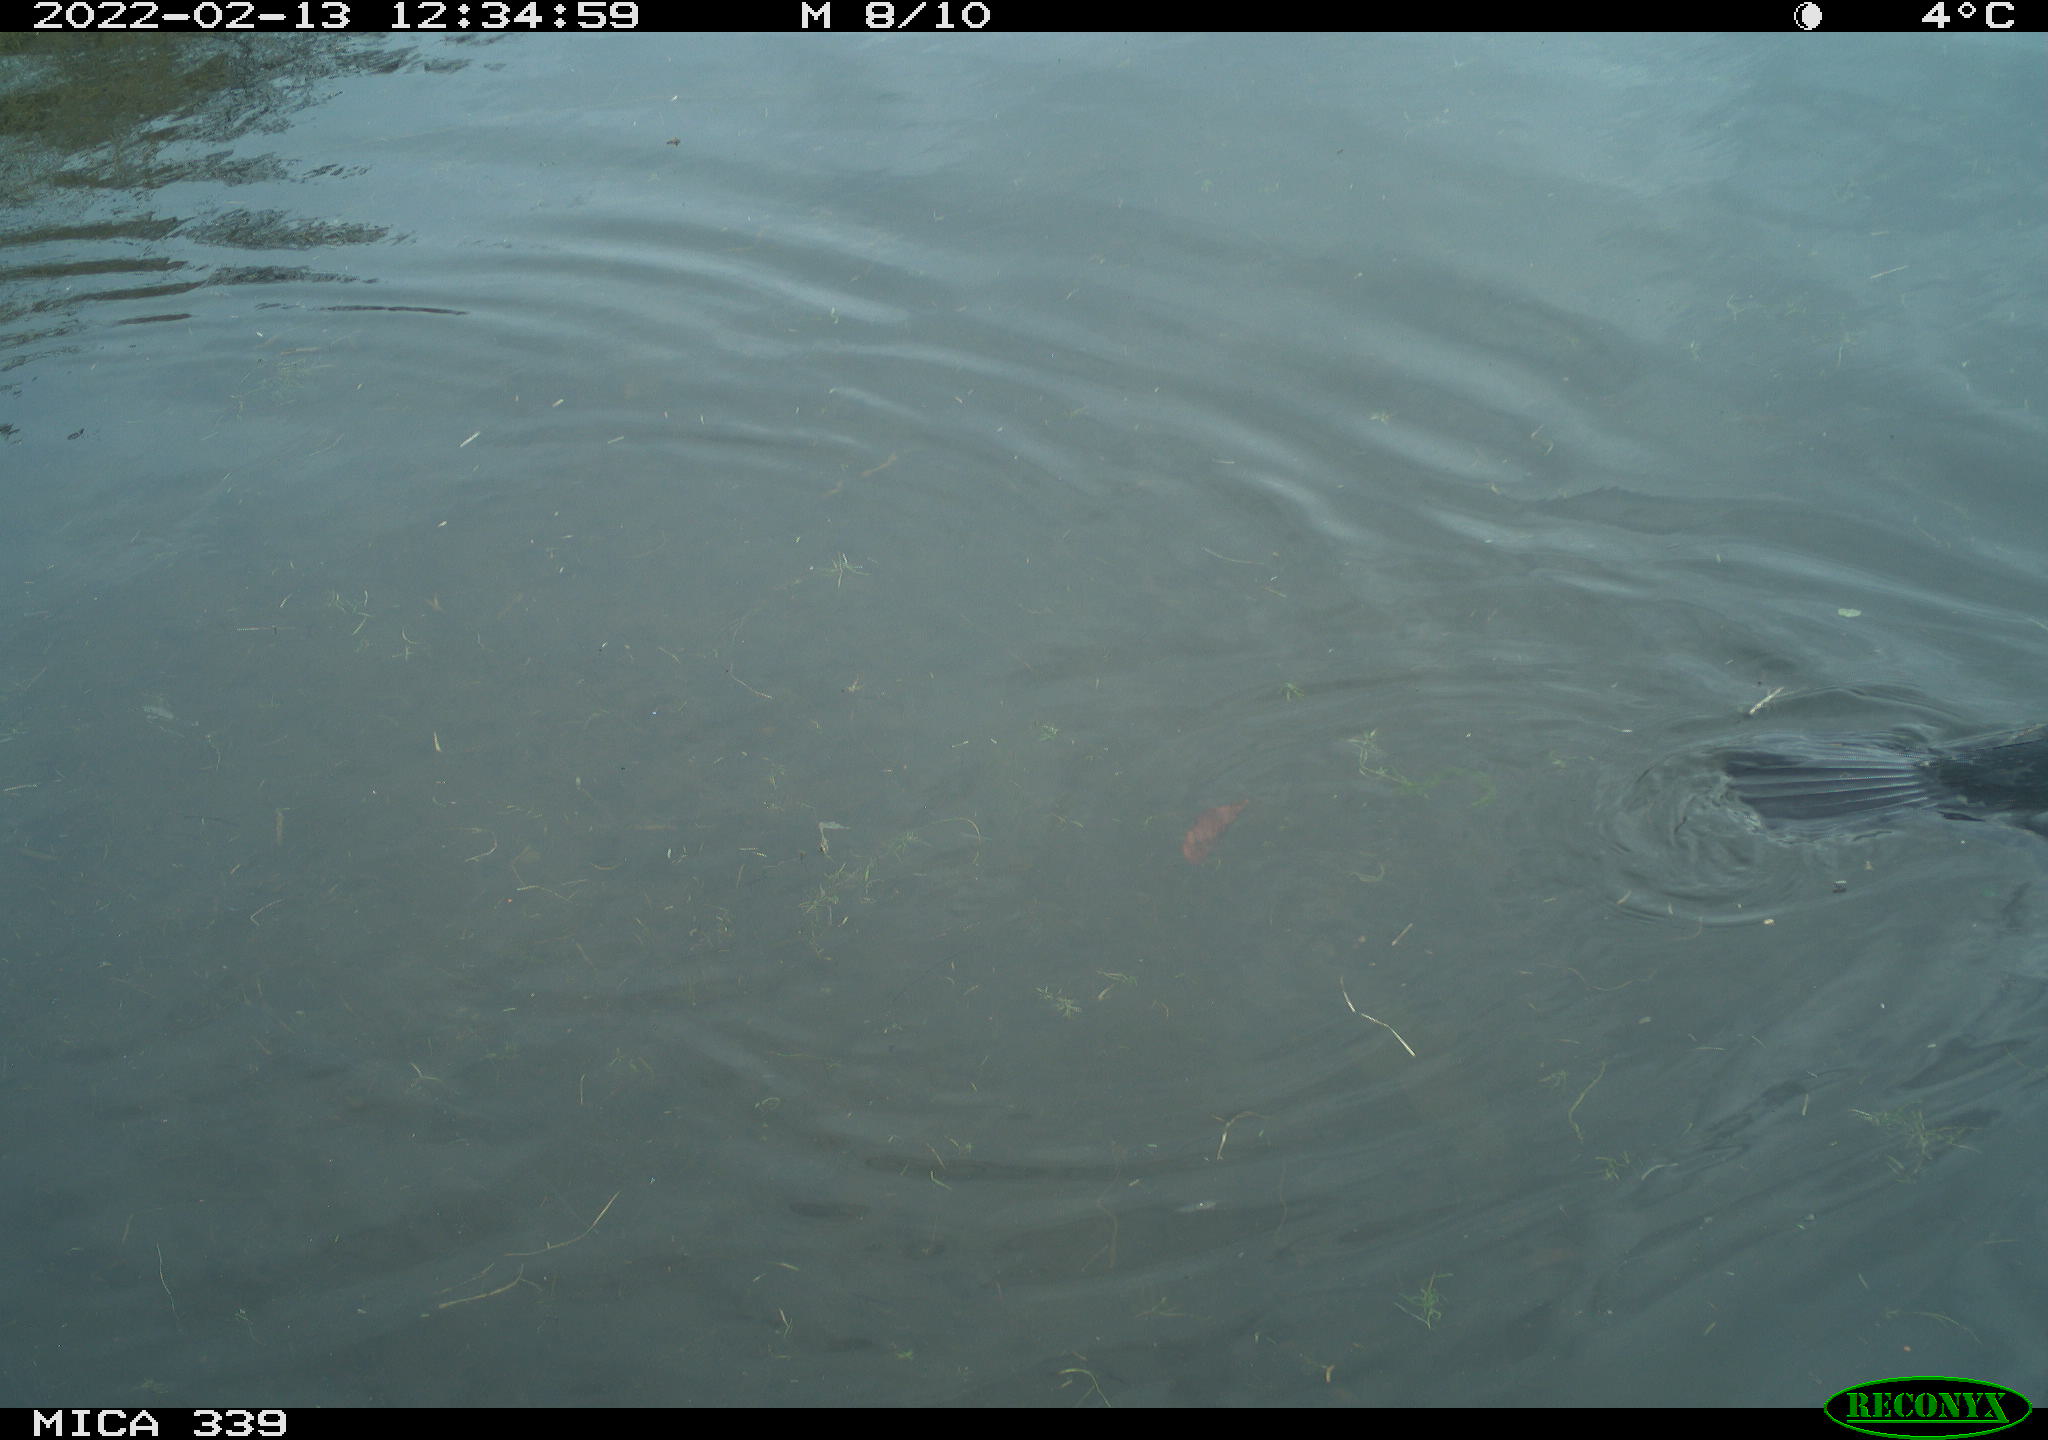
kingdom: Animalia
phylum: Chordata
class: Aves
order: Suliformes
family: Phalacrocoracidae
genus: Phalacrocorax
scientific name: Phalacrocorax carbo
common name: Great cormorant
